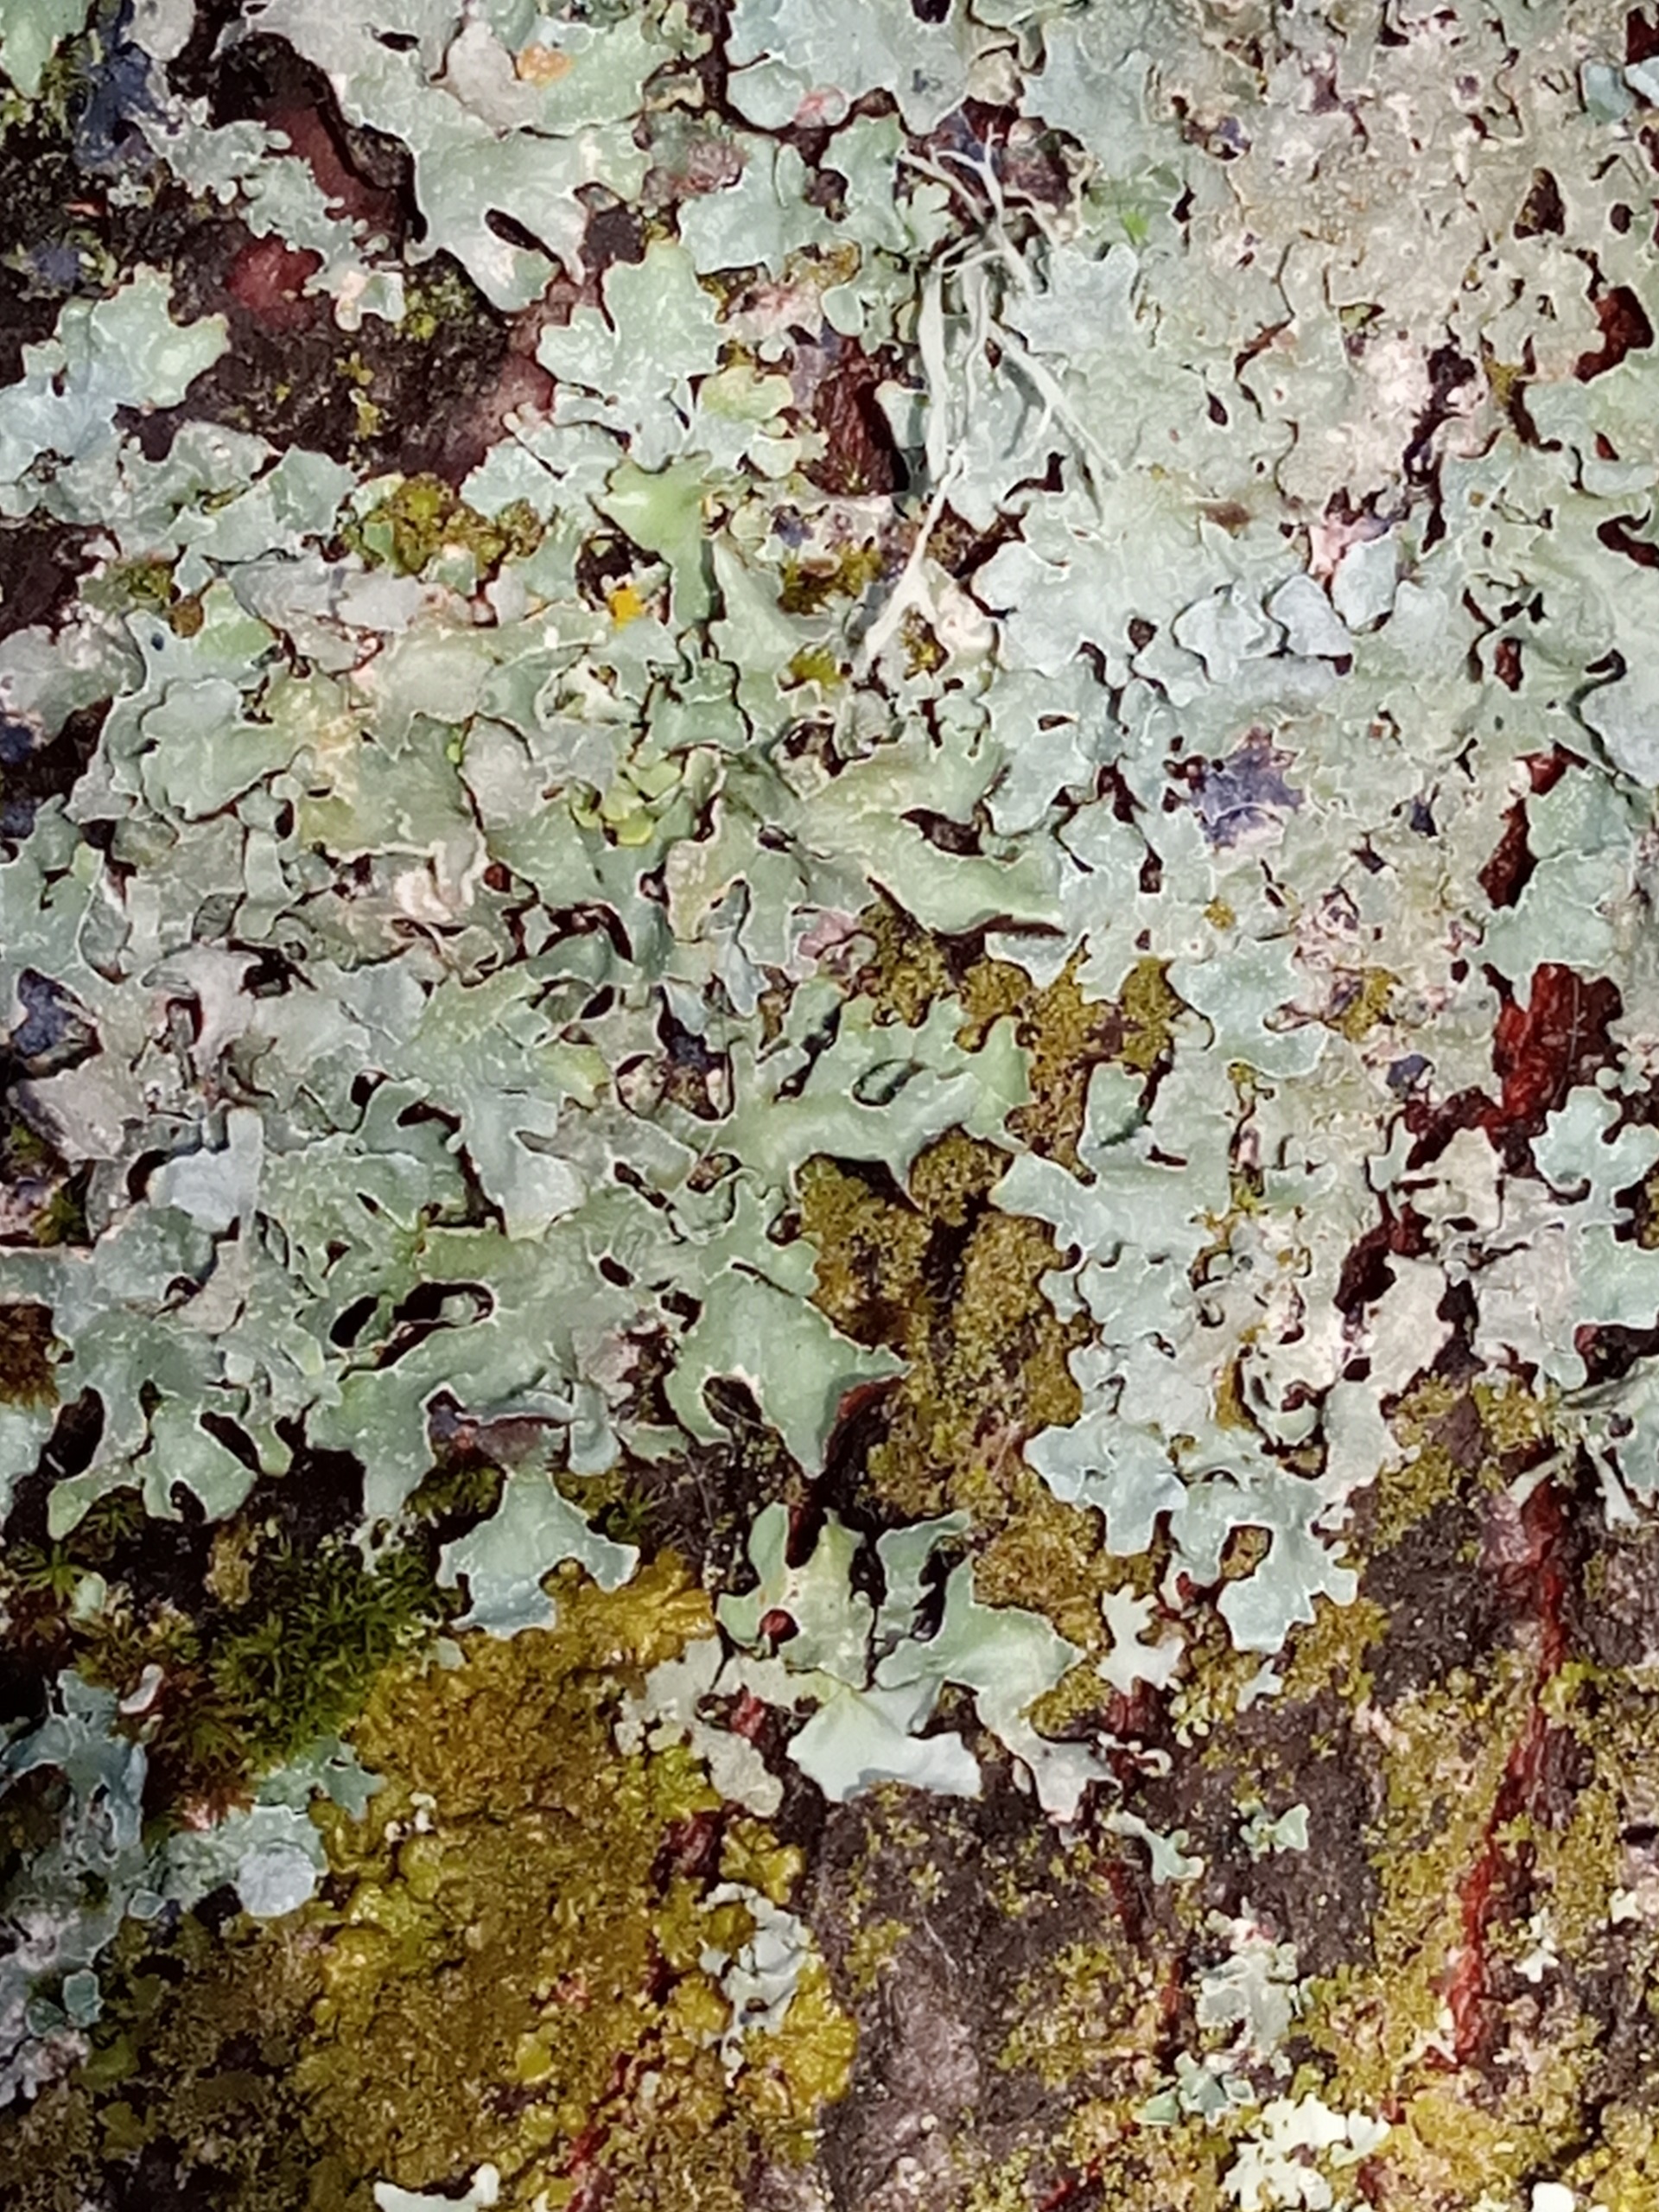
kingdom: Fungi
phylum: Ascomycota
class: Lecanoromycetes
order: Lecanorales
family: Parmeliaceae
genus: Parmelia
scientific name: Parmelia sulcata
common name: Rynket skållav
